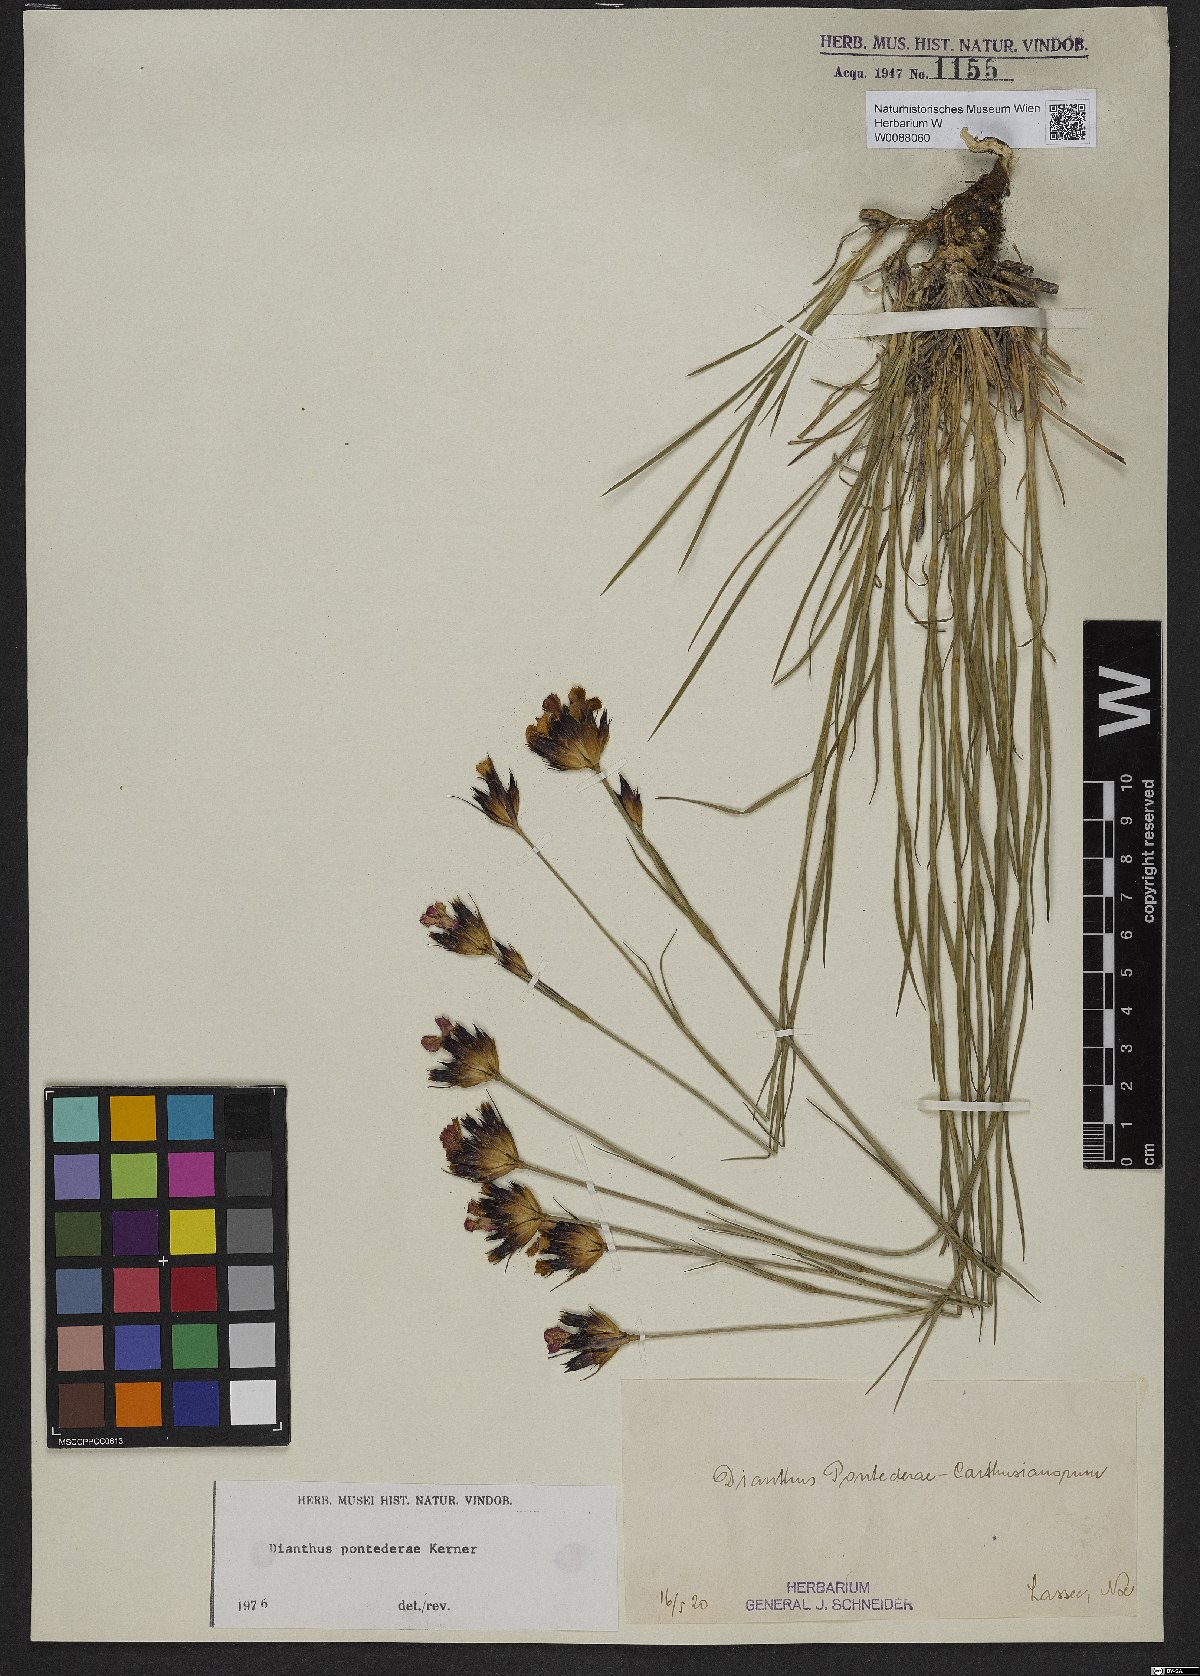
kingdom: Plantae
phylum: Tracheophyta
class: Magnoliopsida
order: Caryophyllales
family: Caryophyllaceae
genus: Dianthus
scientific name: Dianthus pontederae
